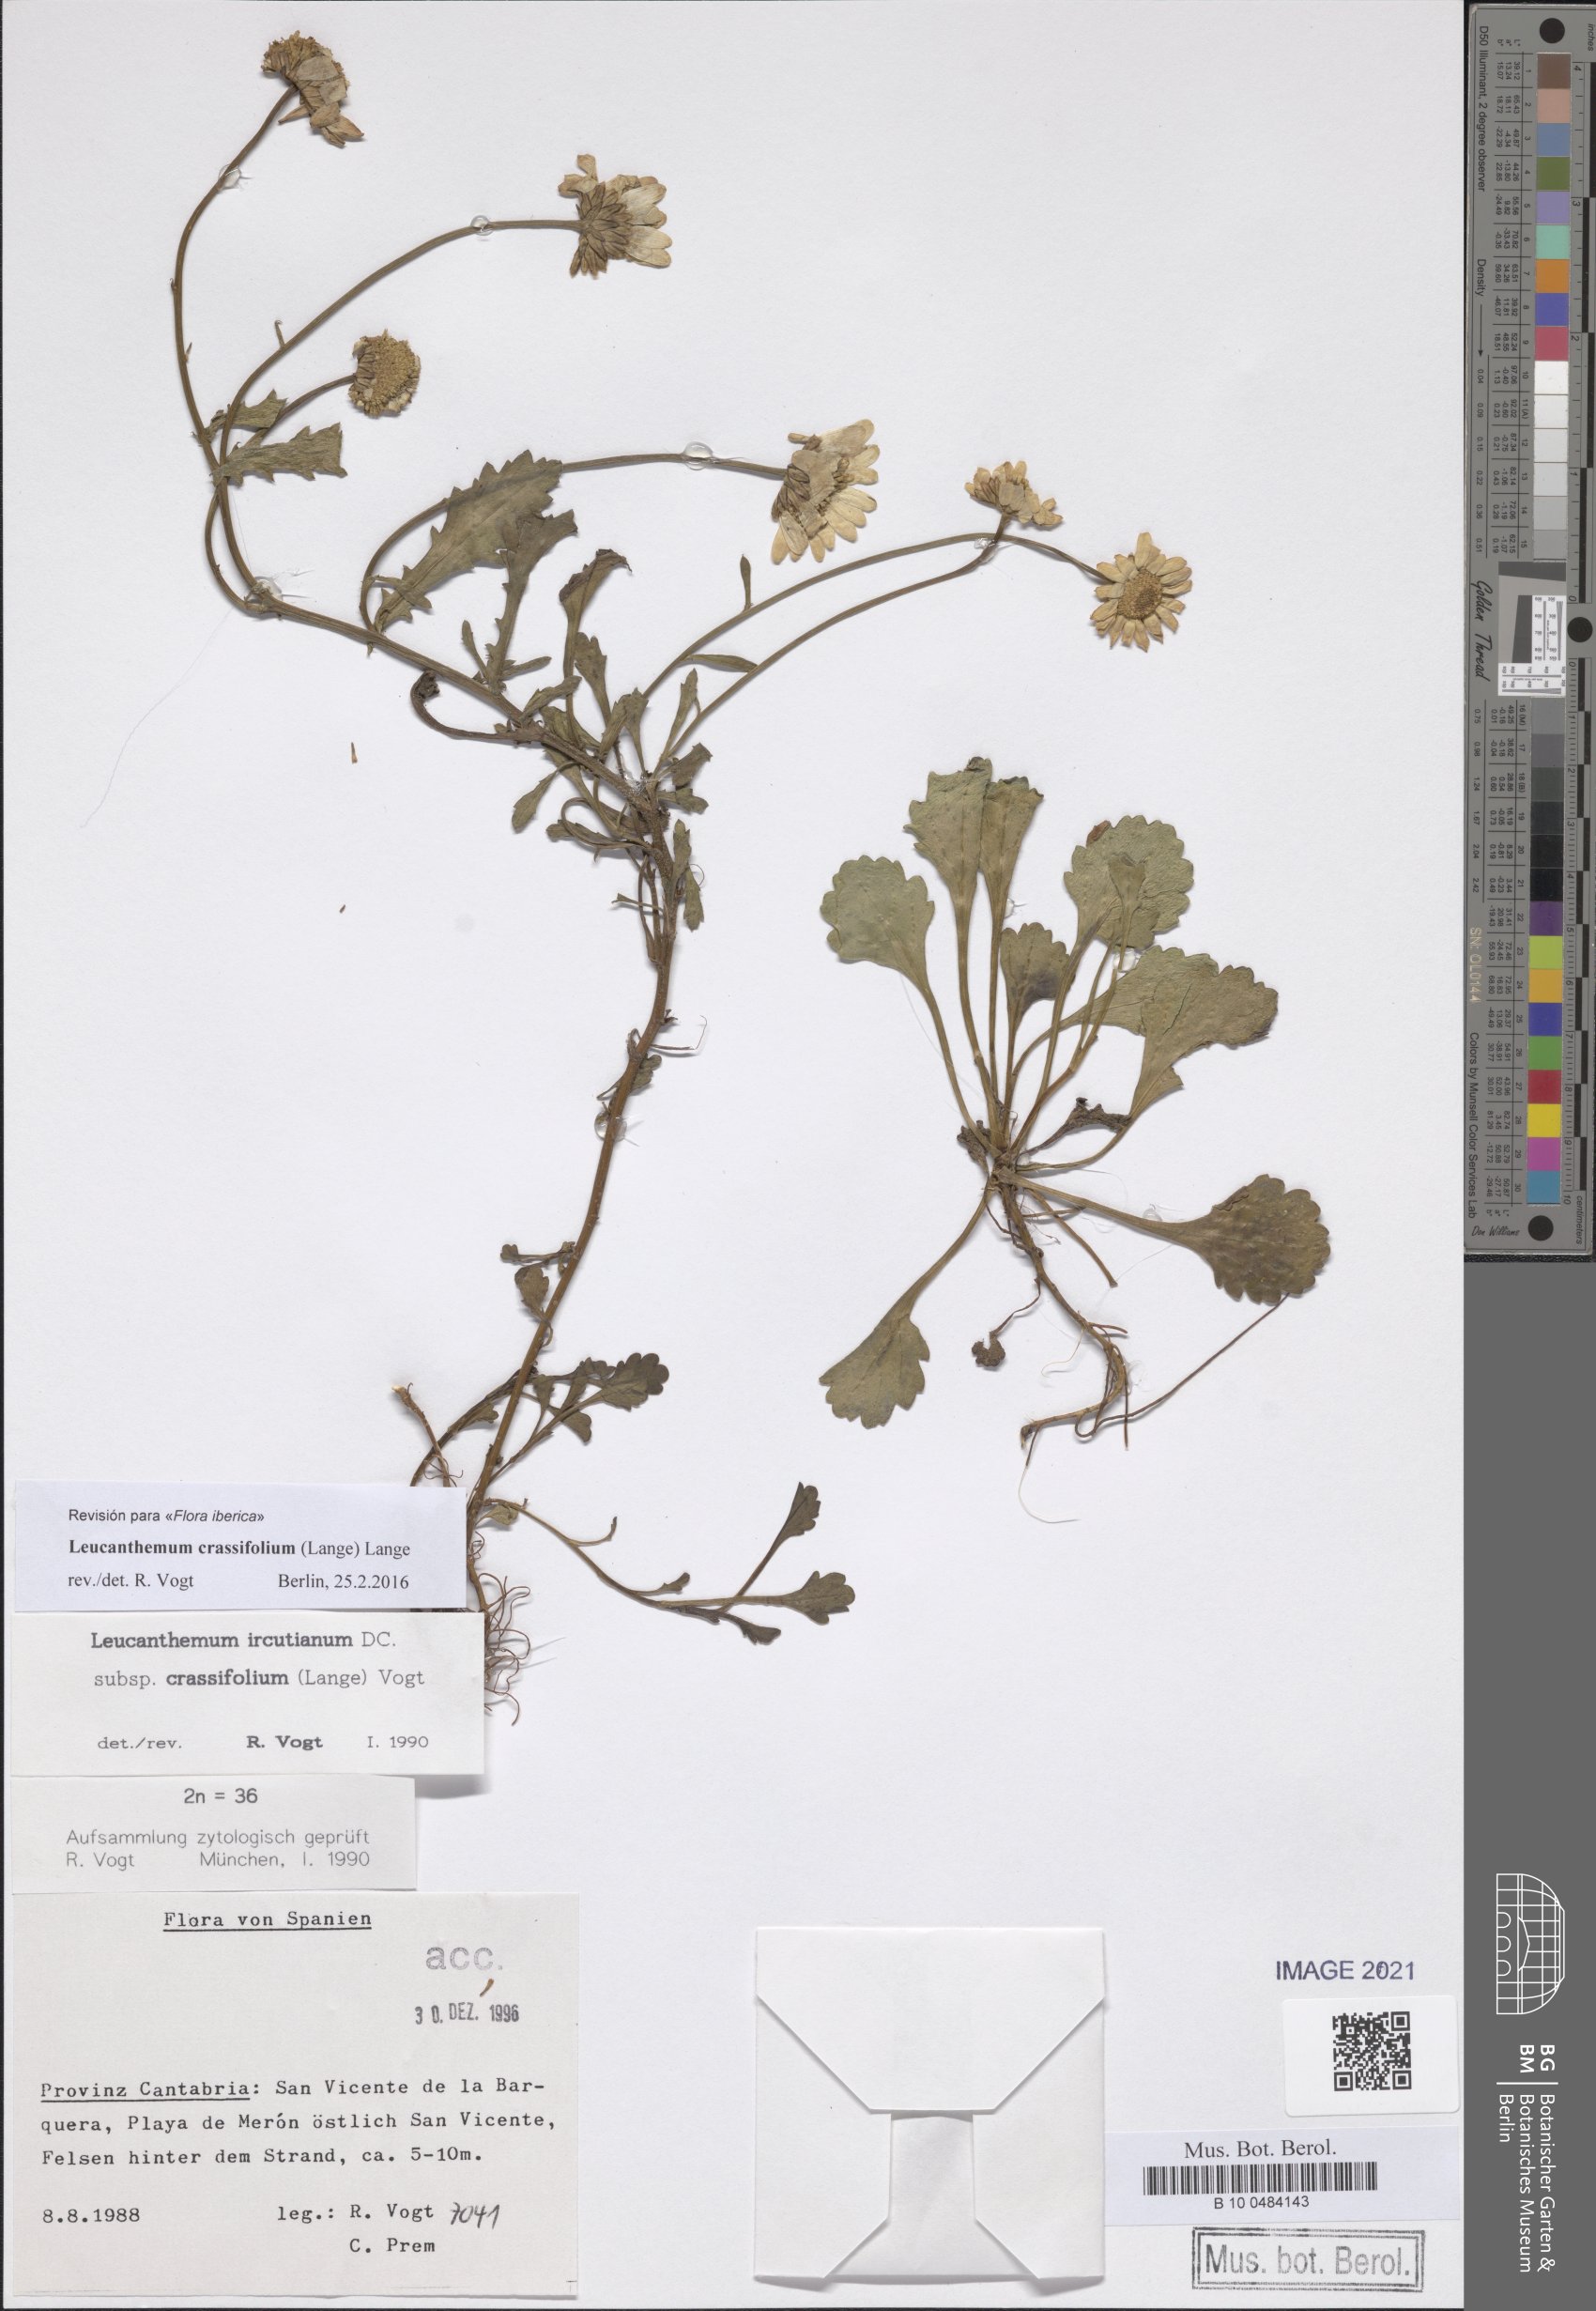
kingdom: Plantae
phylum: Tracheophyta
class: Magnoliopsida
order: Asterales
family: Asteraceae
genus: Leucanthemum
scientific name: Leucanthemum crassifolium
